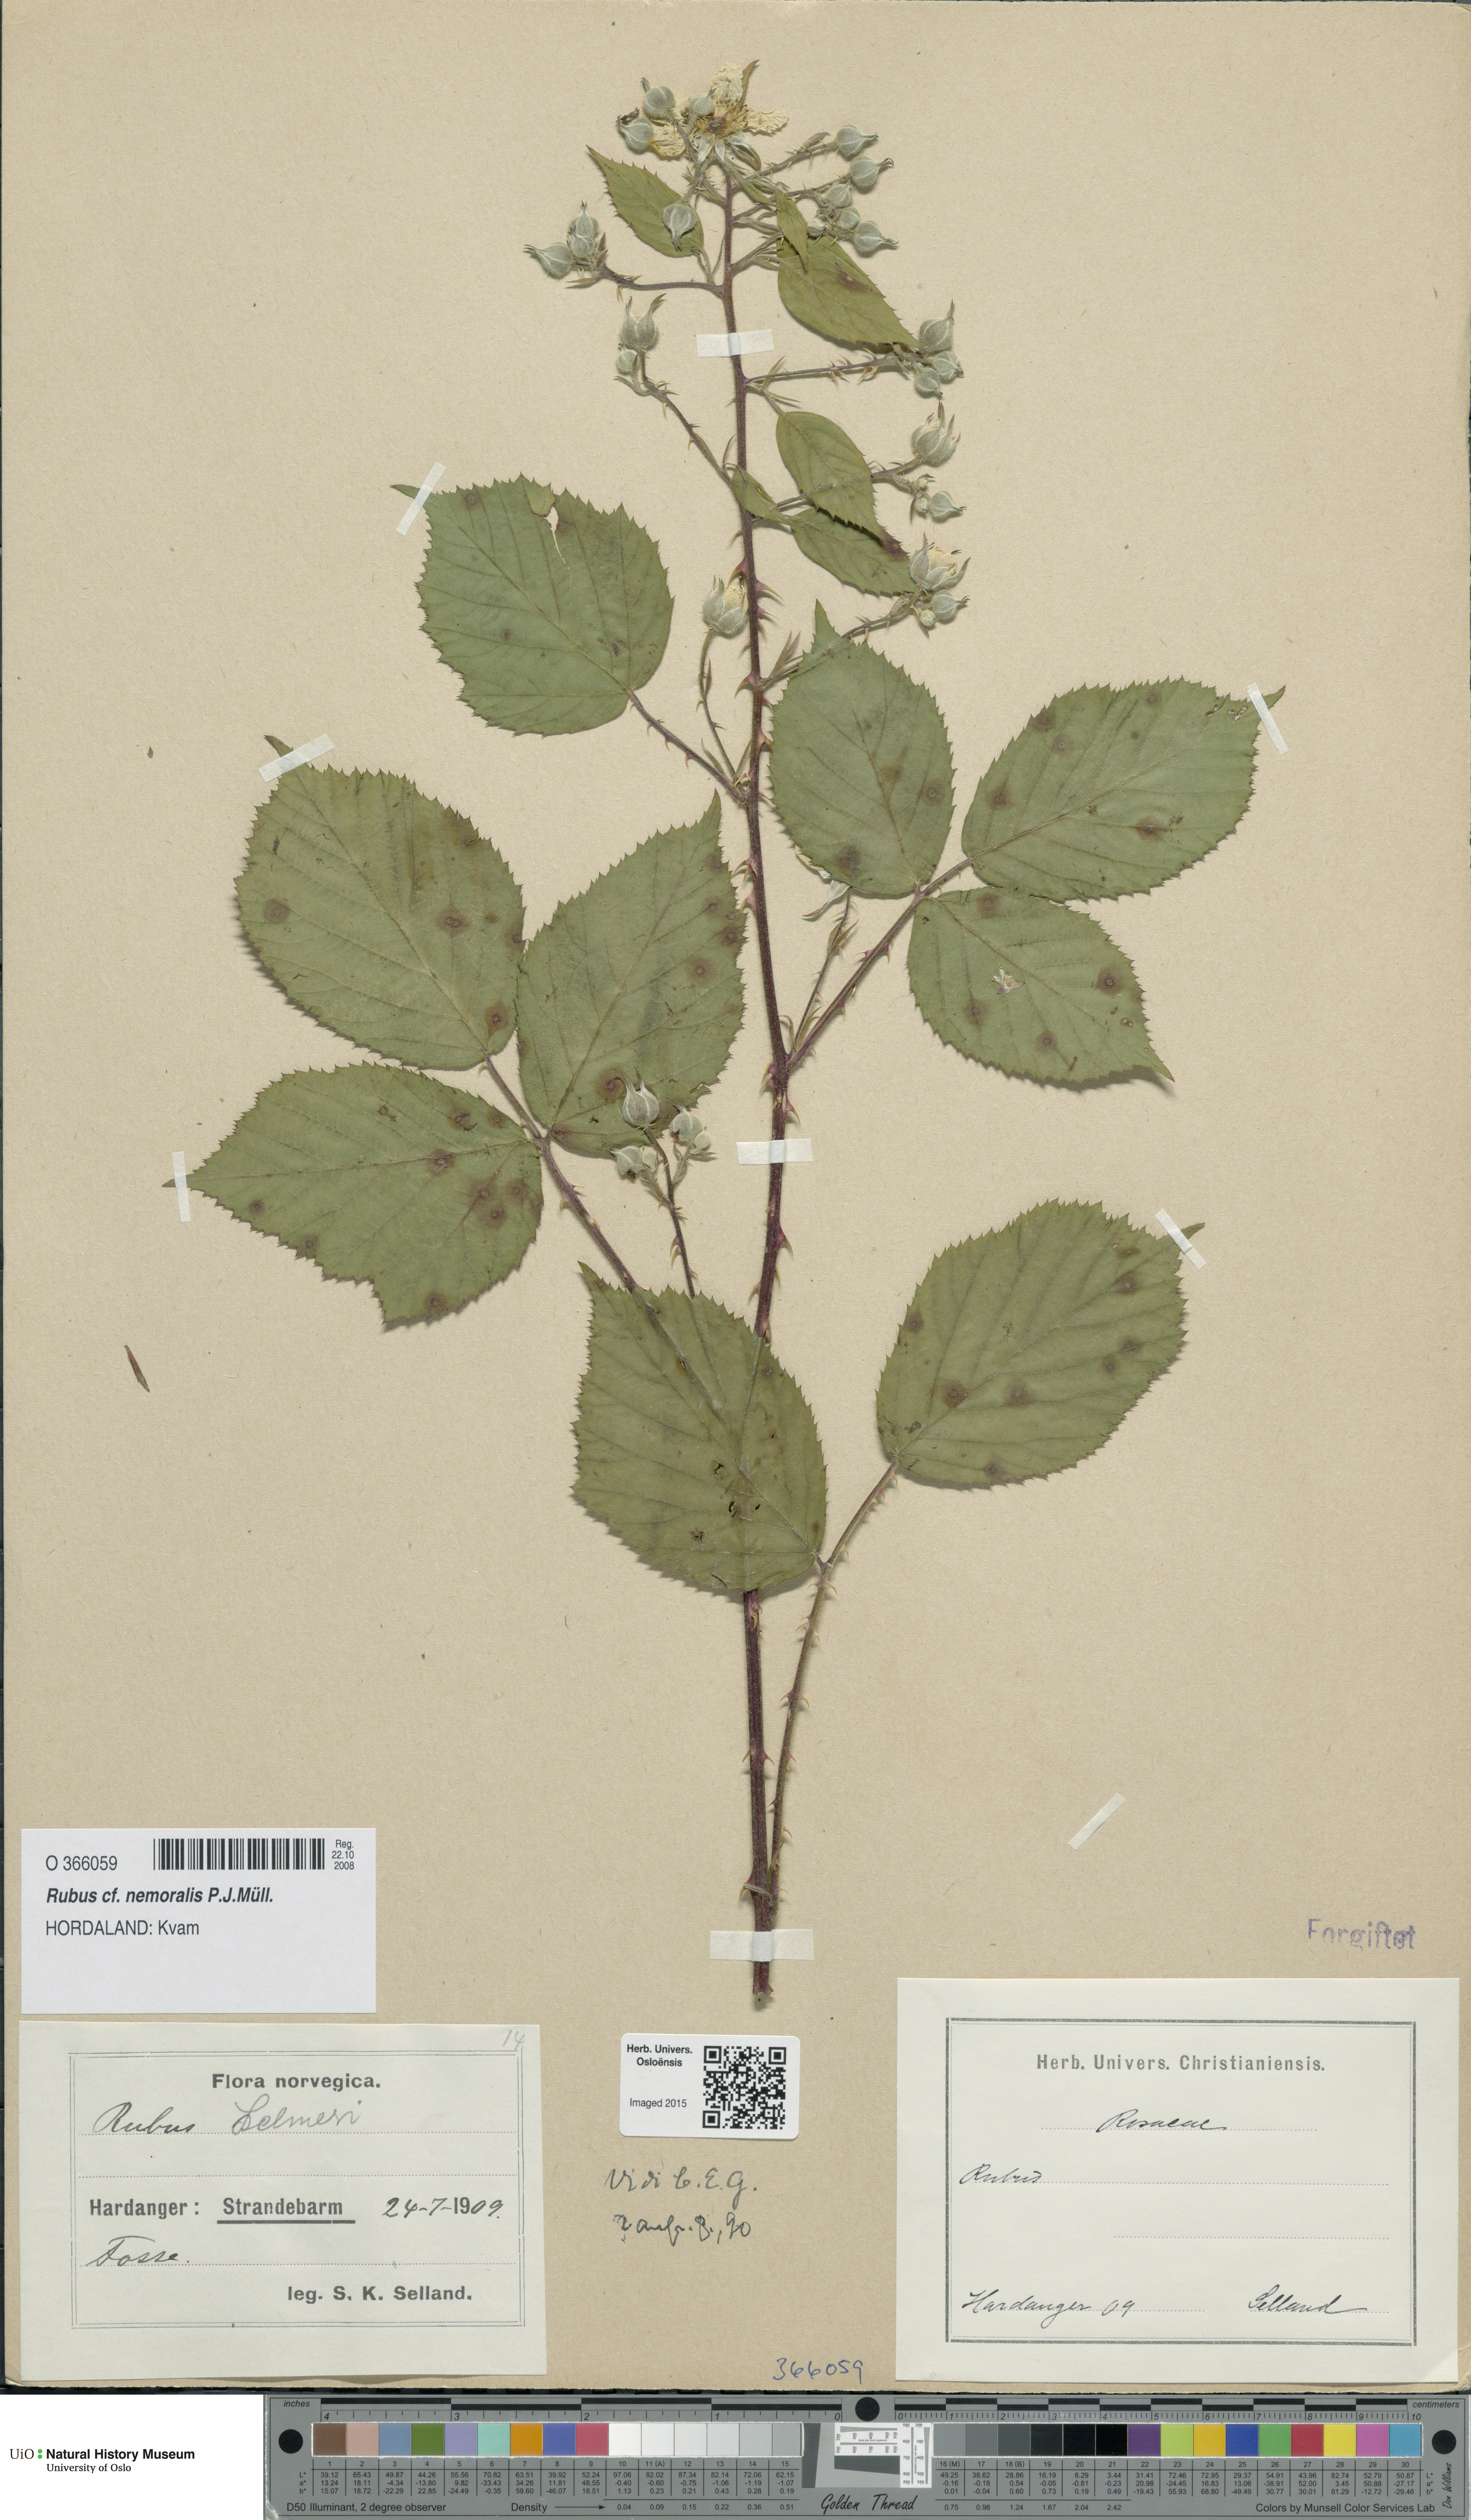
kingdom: Plantae
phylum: Tracheophyta
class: Magnoliopsida
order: Rosales
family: Rosaceae
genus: Rubus
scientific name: Rubus nemoralis
